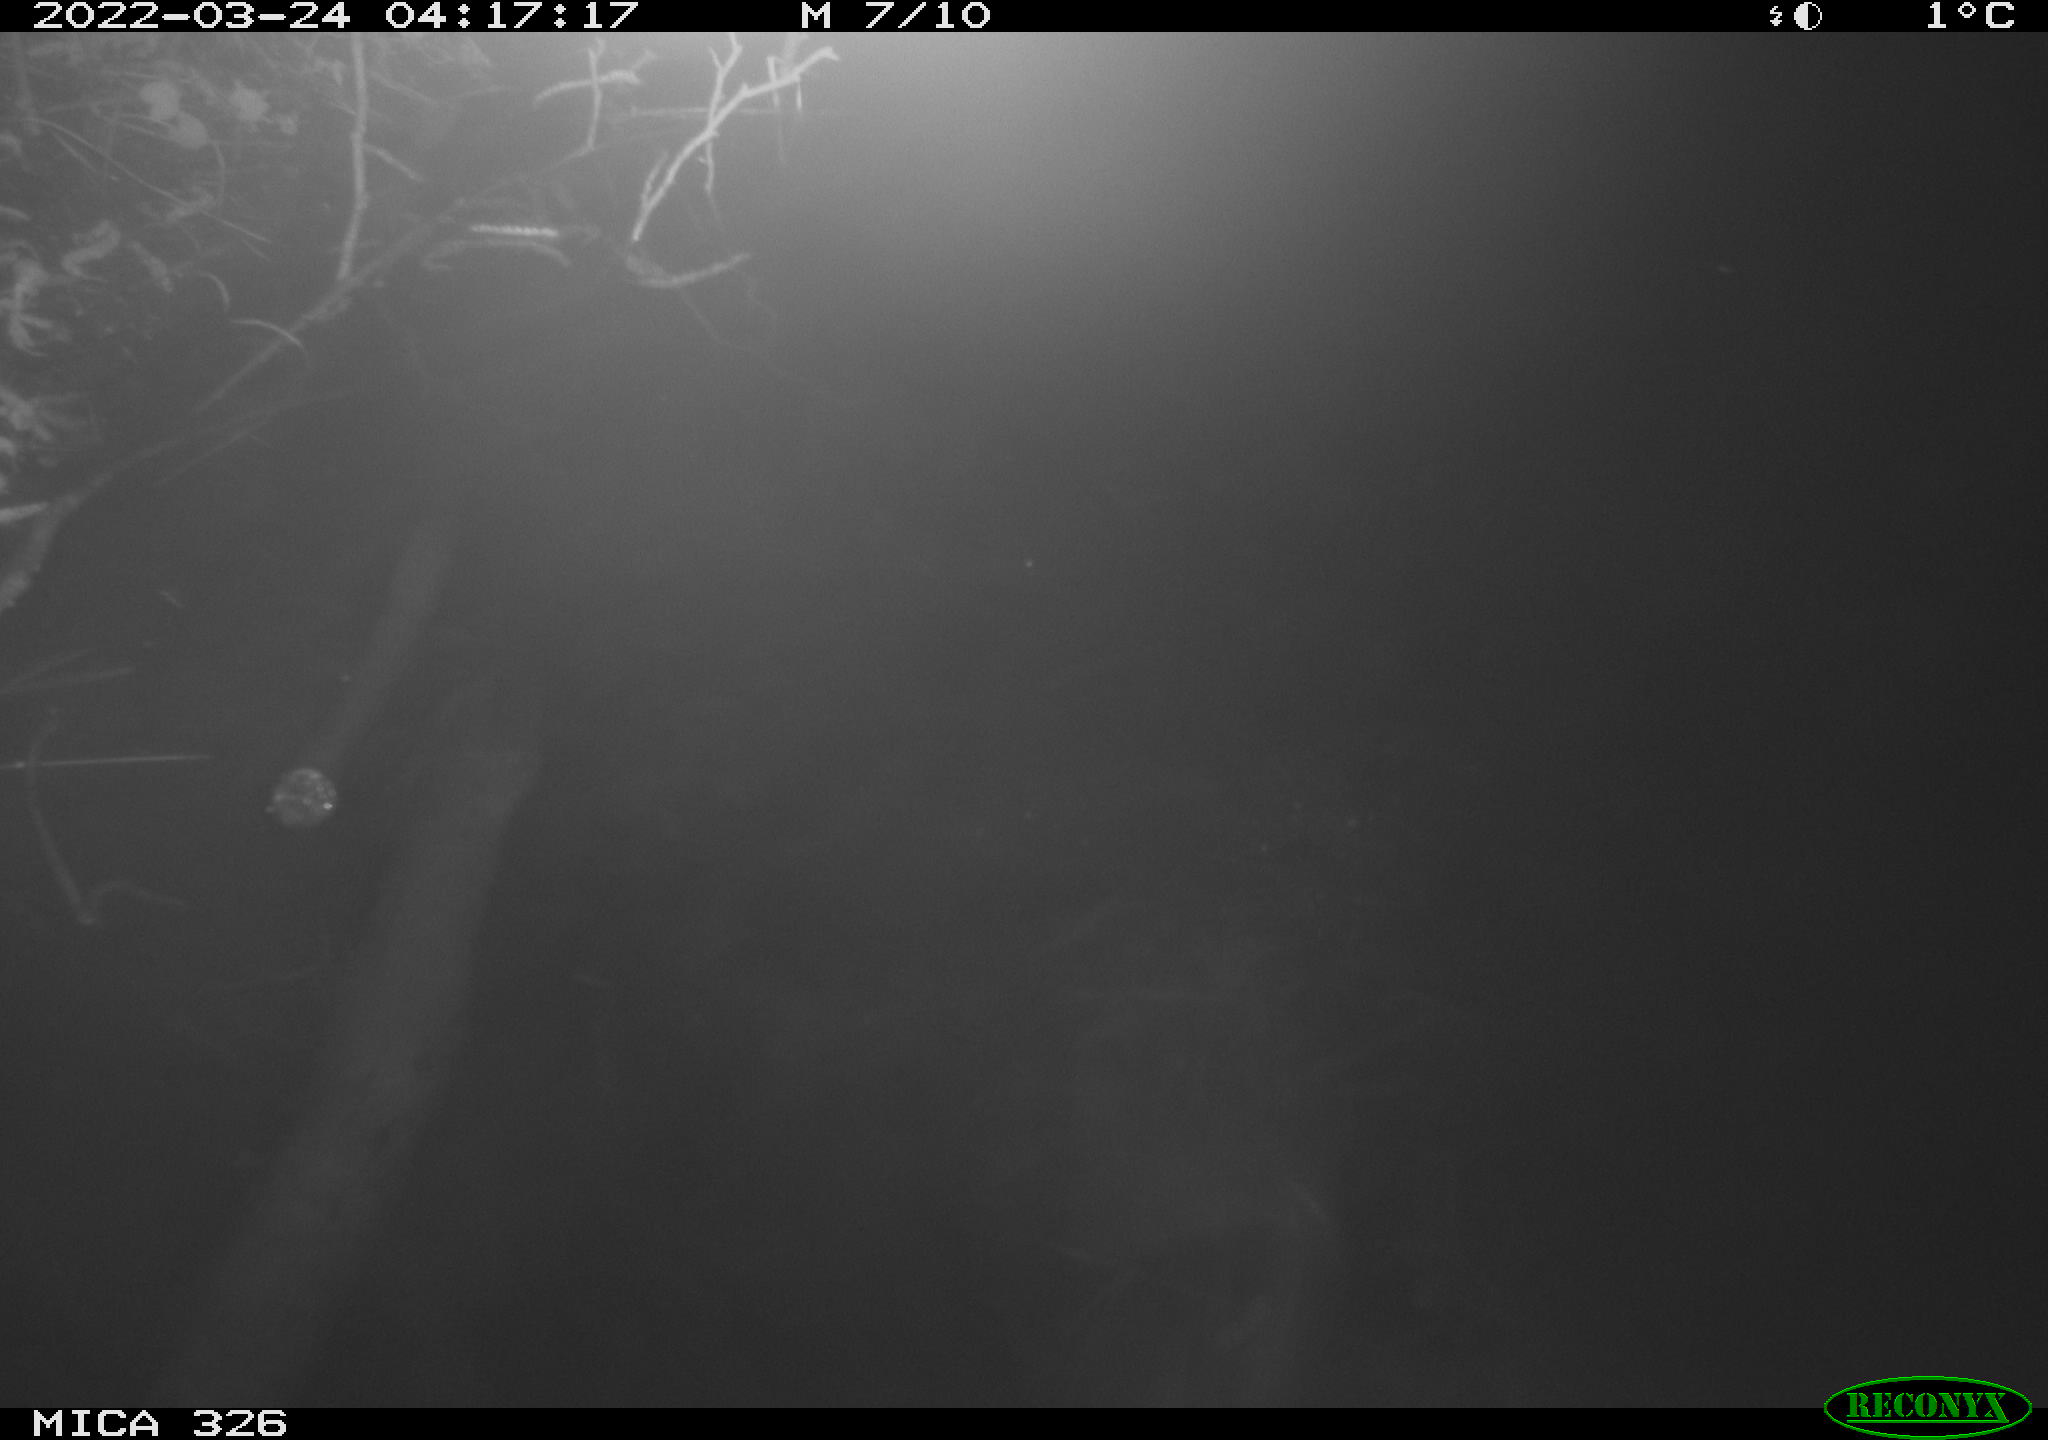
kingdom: Animalia
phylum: Chordata
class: Mammalia
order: Rodentia
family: Muridae
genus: Rattus
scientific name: Rattus norvegicus
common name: Brown rat
